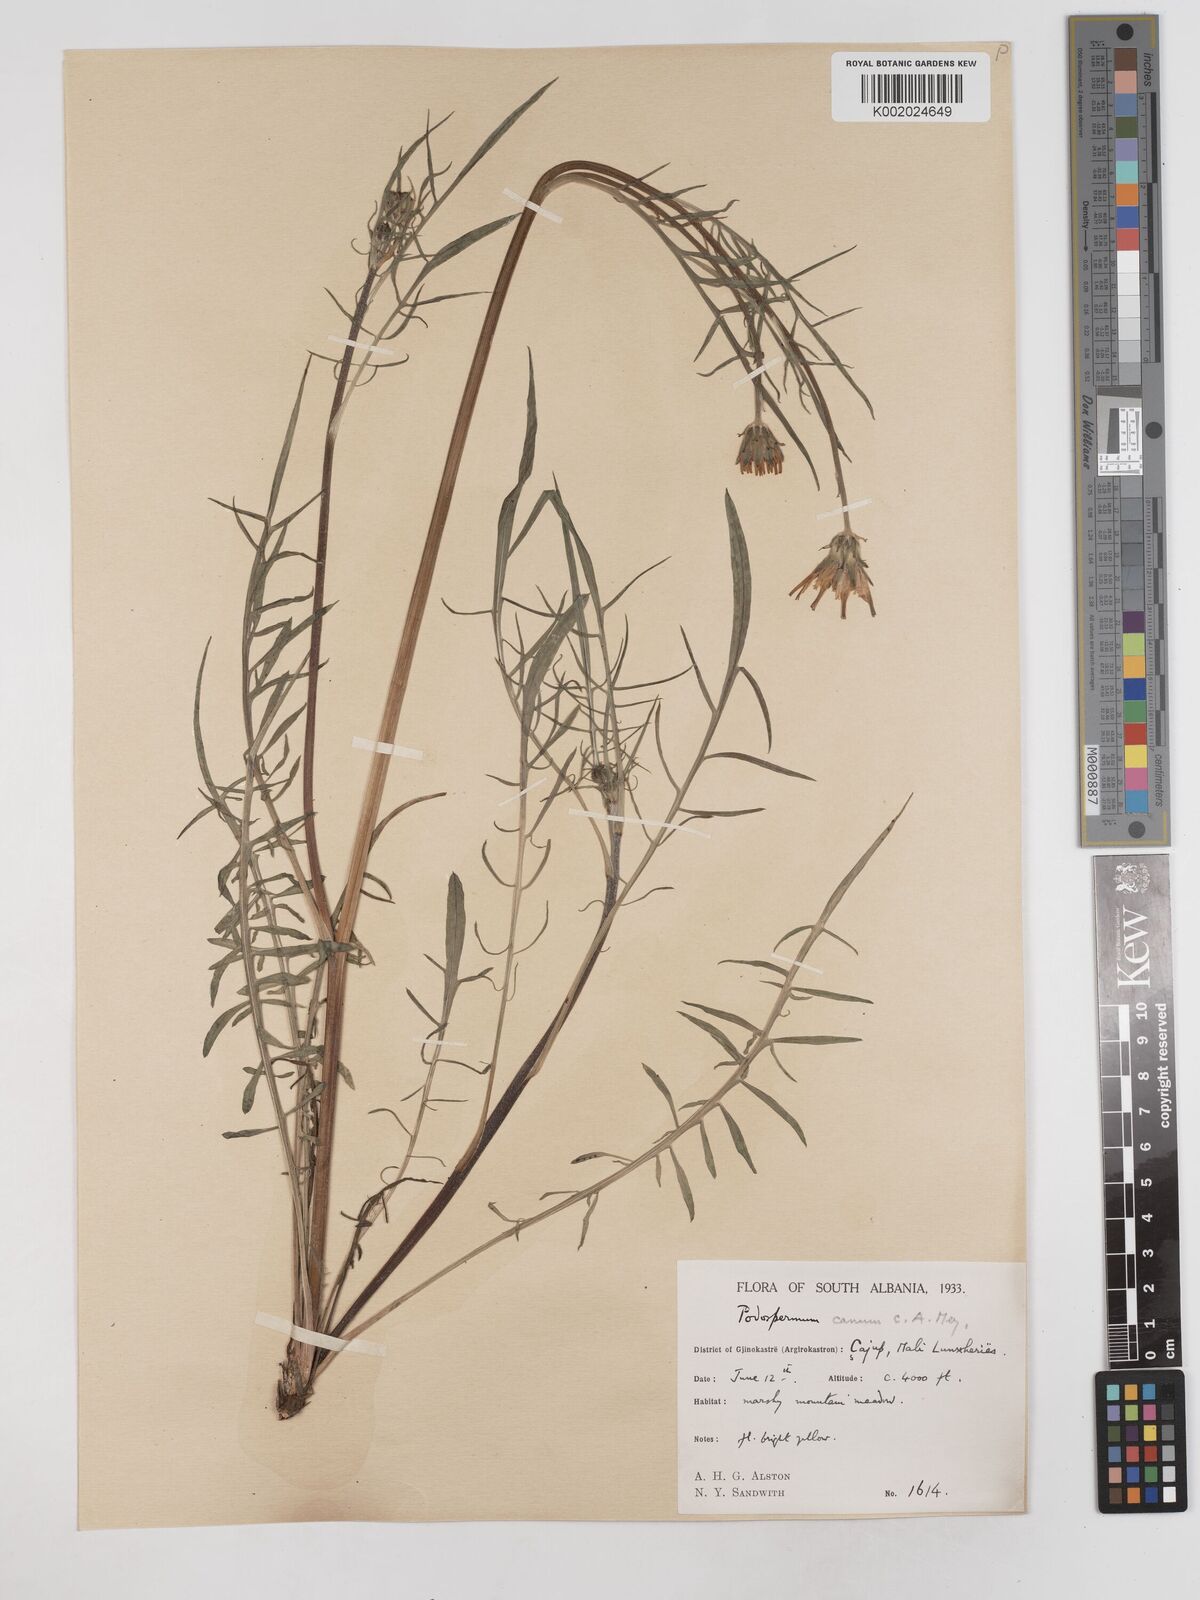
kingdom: Plantae
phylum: Tracheophyta
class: Magnoliopsida
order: Asterales
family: Asteraceae
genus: Scorzonera
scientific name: Scorzonera cana
